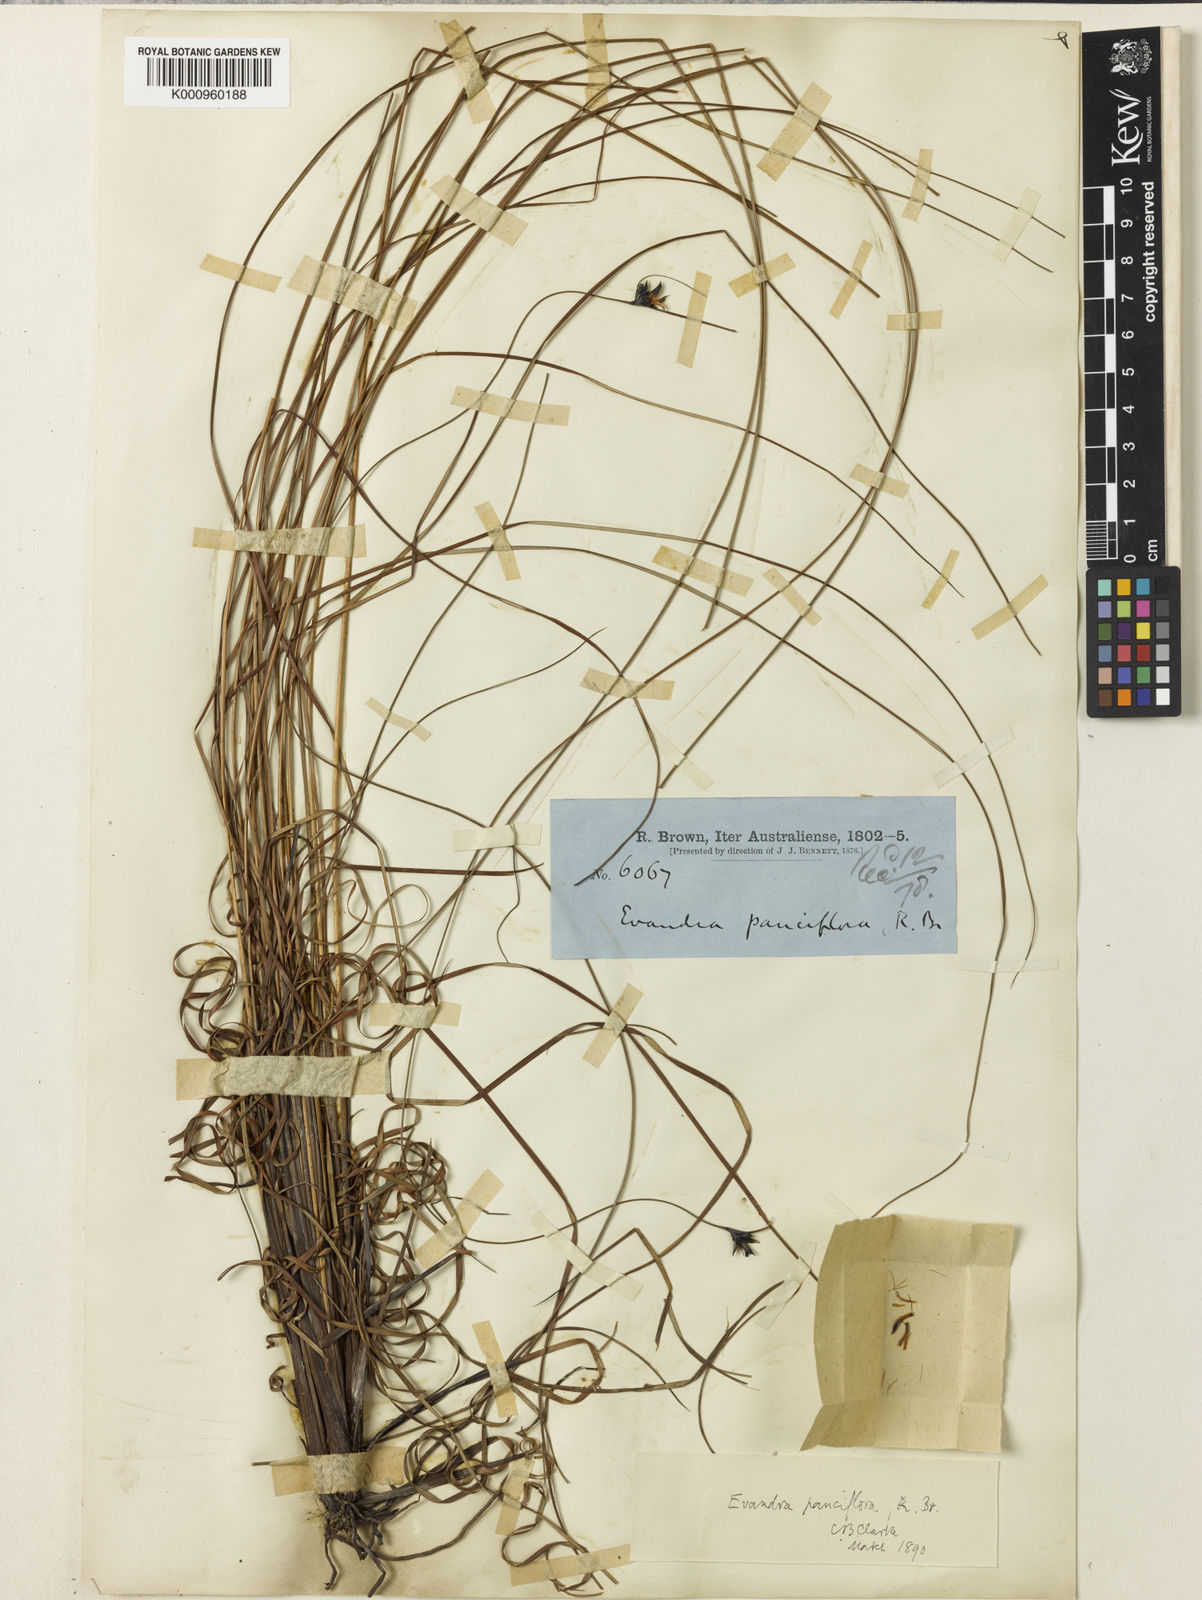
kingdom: Plantae
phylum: Tracheophyta
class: Liliopsida
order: Poales
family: Cyperaceae
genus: Evandra
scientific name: Evandra pauciflora
